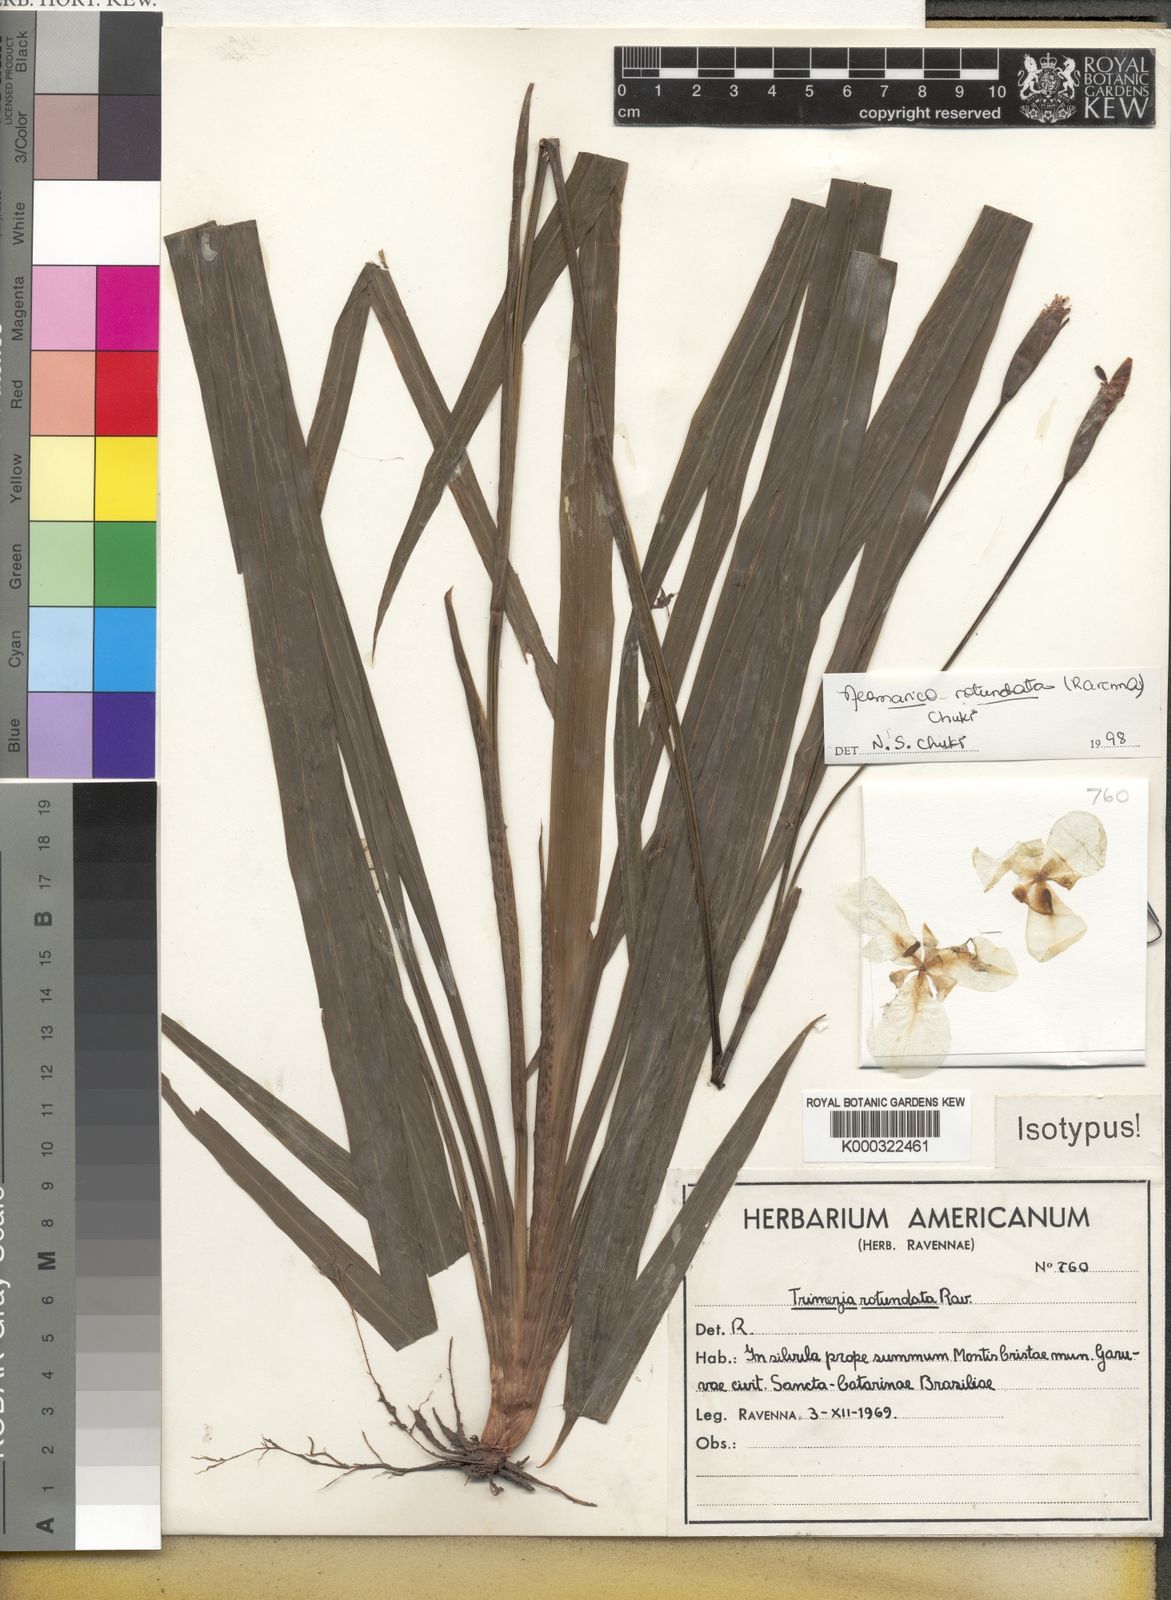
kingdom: Plantae
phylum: Tracheophyta
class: Liliopsida
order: Asparagales
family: Iridaceae
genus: Trimezia
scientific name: Trimezia rotundata
